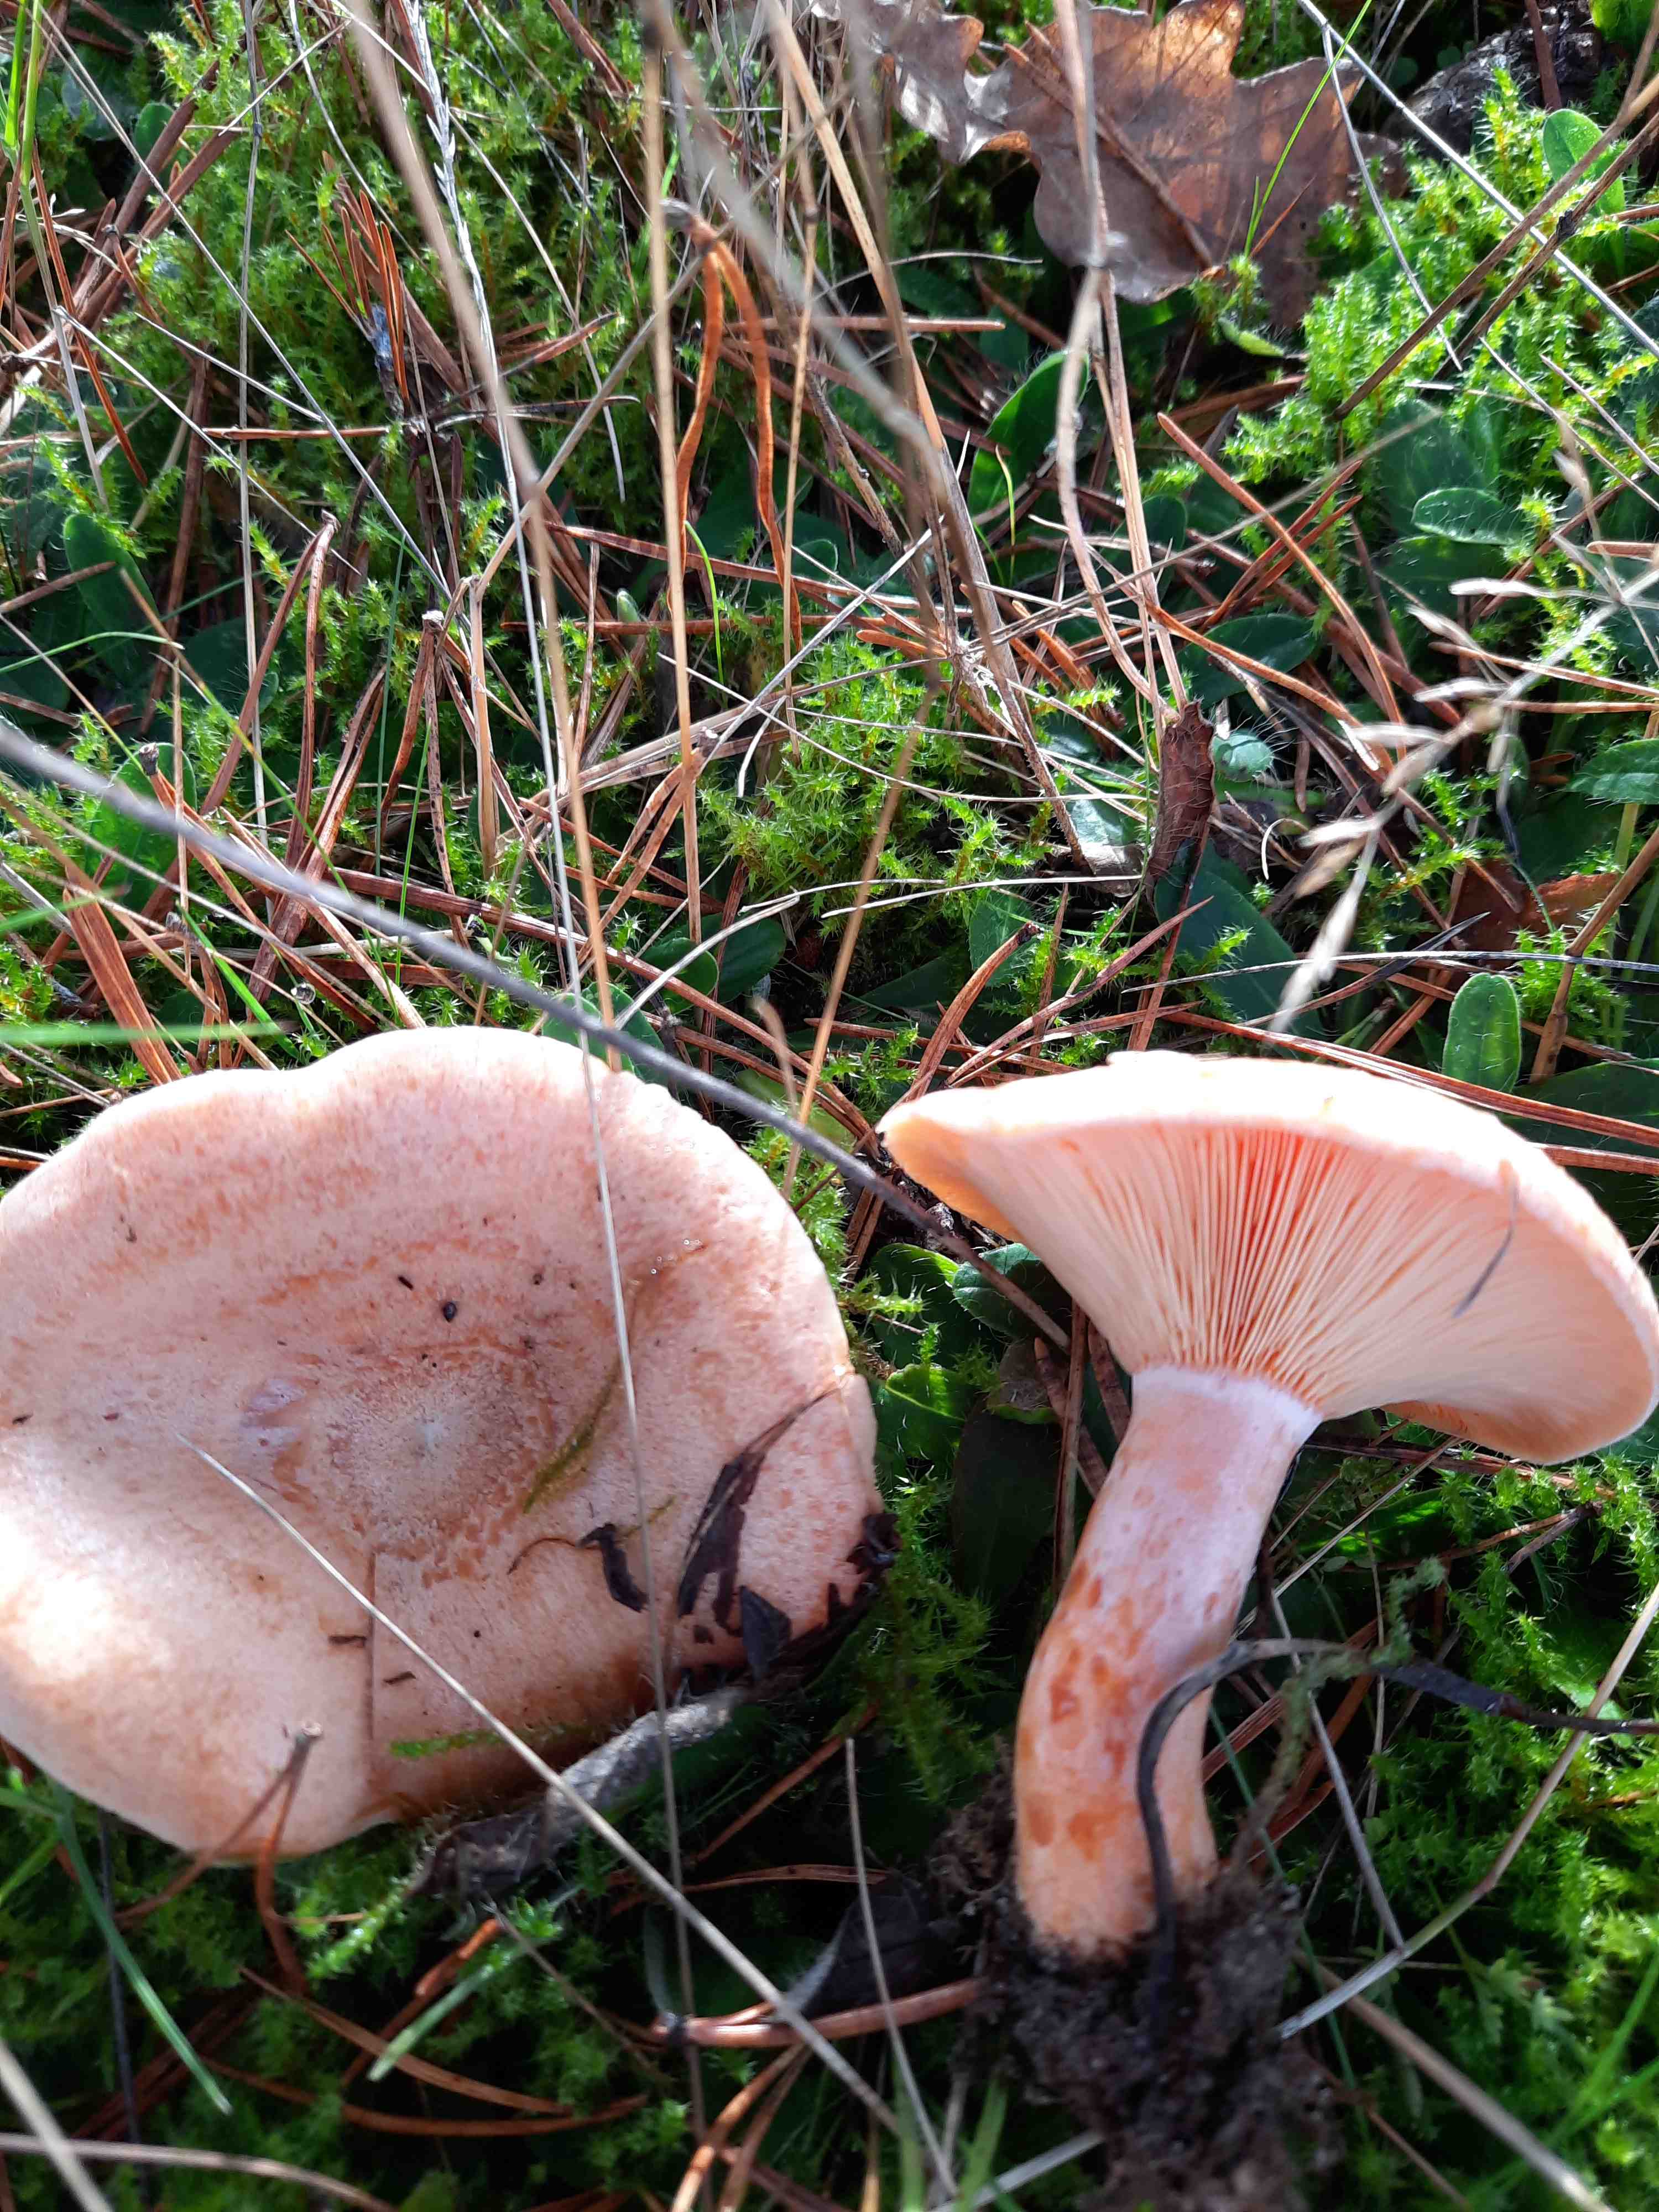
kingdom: Fungi
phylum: Basidiomycota
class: Agaricomycetes
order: Russulales
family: Russulaceae
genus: Lactarius
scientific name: Lactarius deliciosus
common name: velsmagende mælkehat
